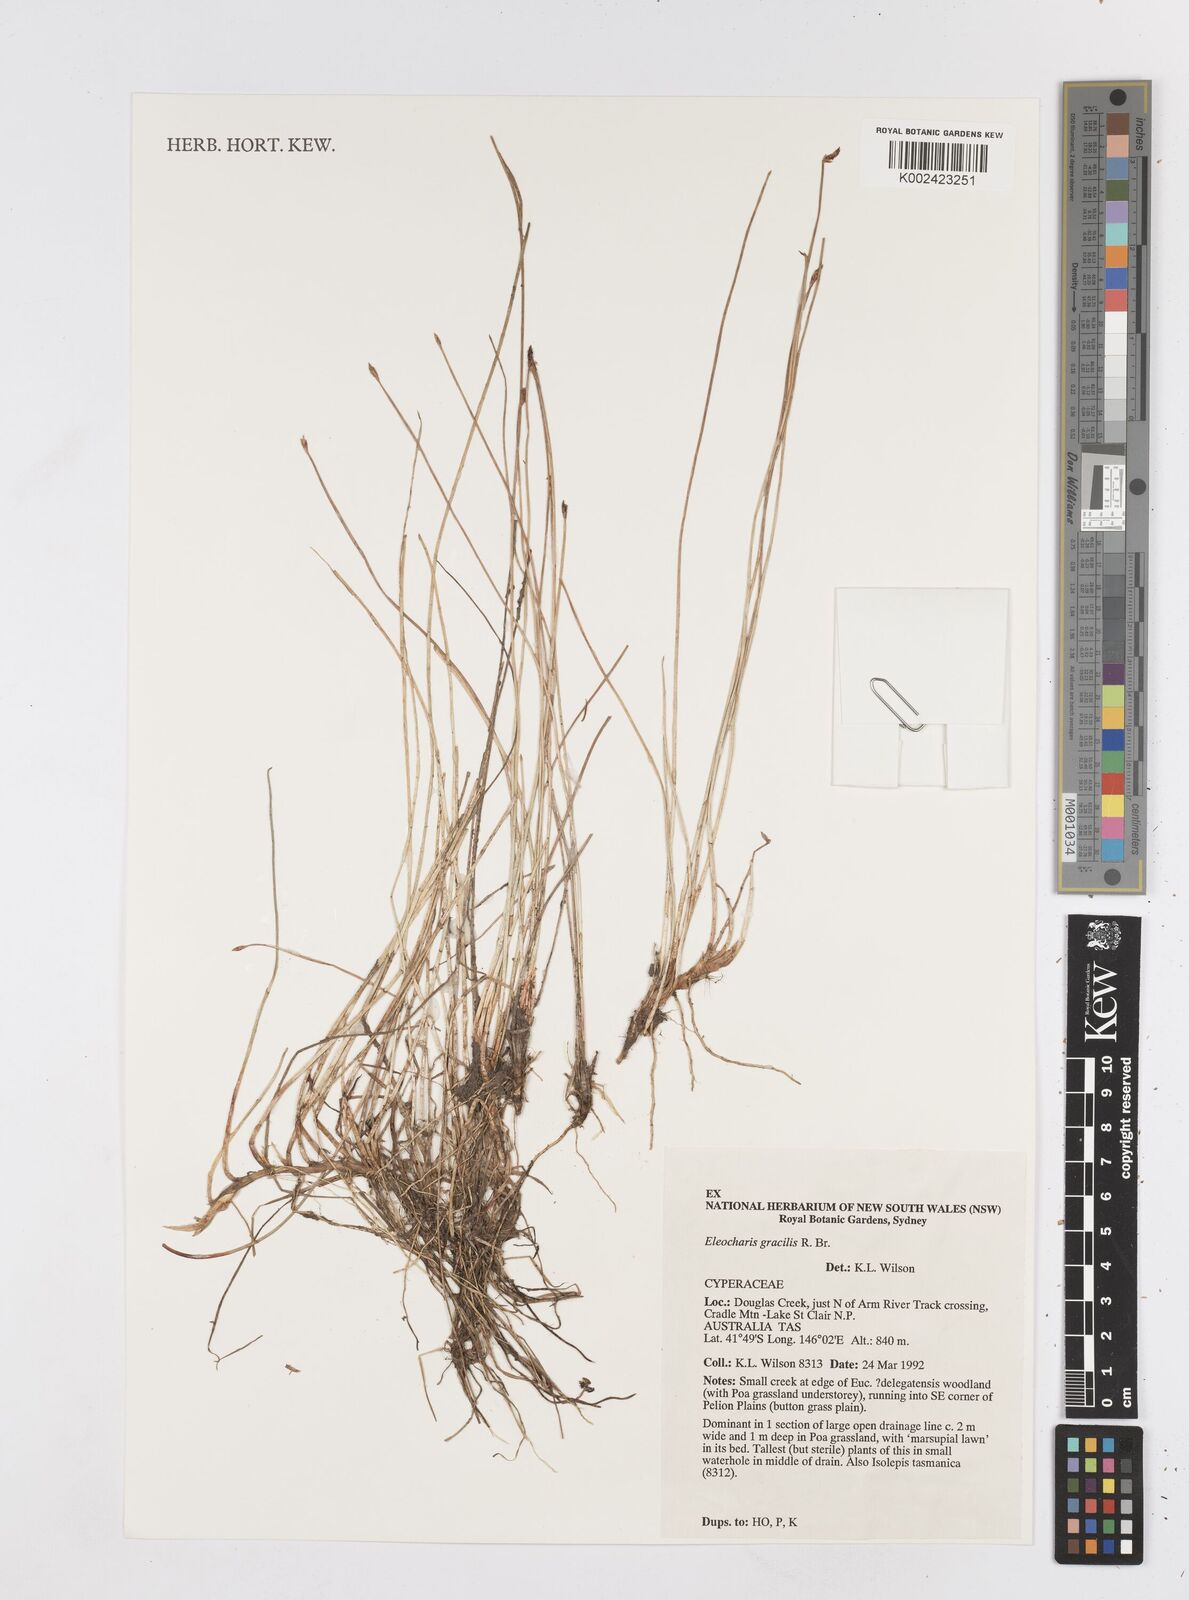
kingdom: Plantae
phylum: Tracheophyta
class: Liliopsida
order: Poales
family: Cyperaceae
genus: Eleocharis
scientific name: Eleocharis multicaulis
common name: Many-stalked spike-rush
